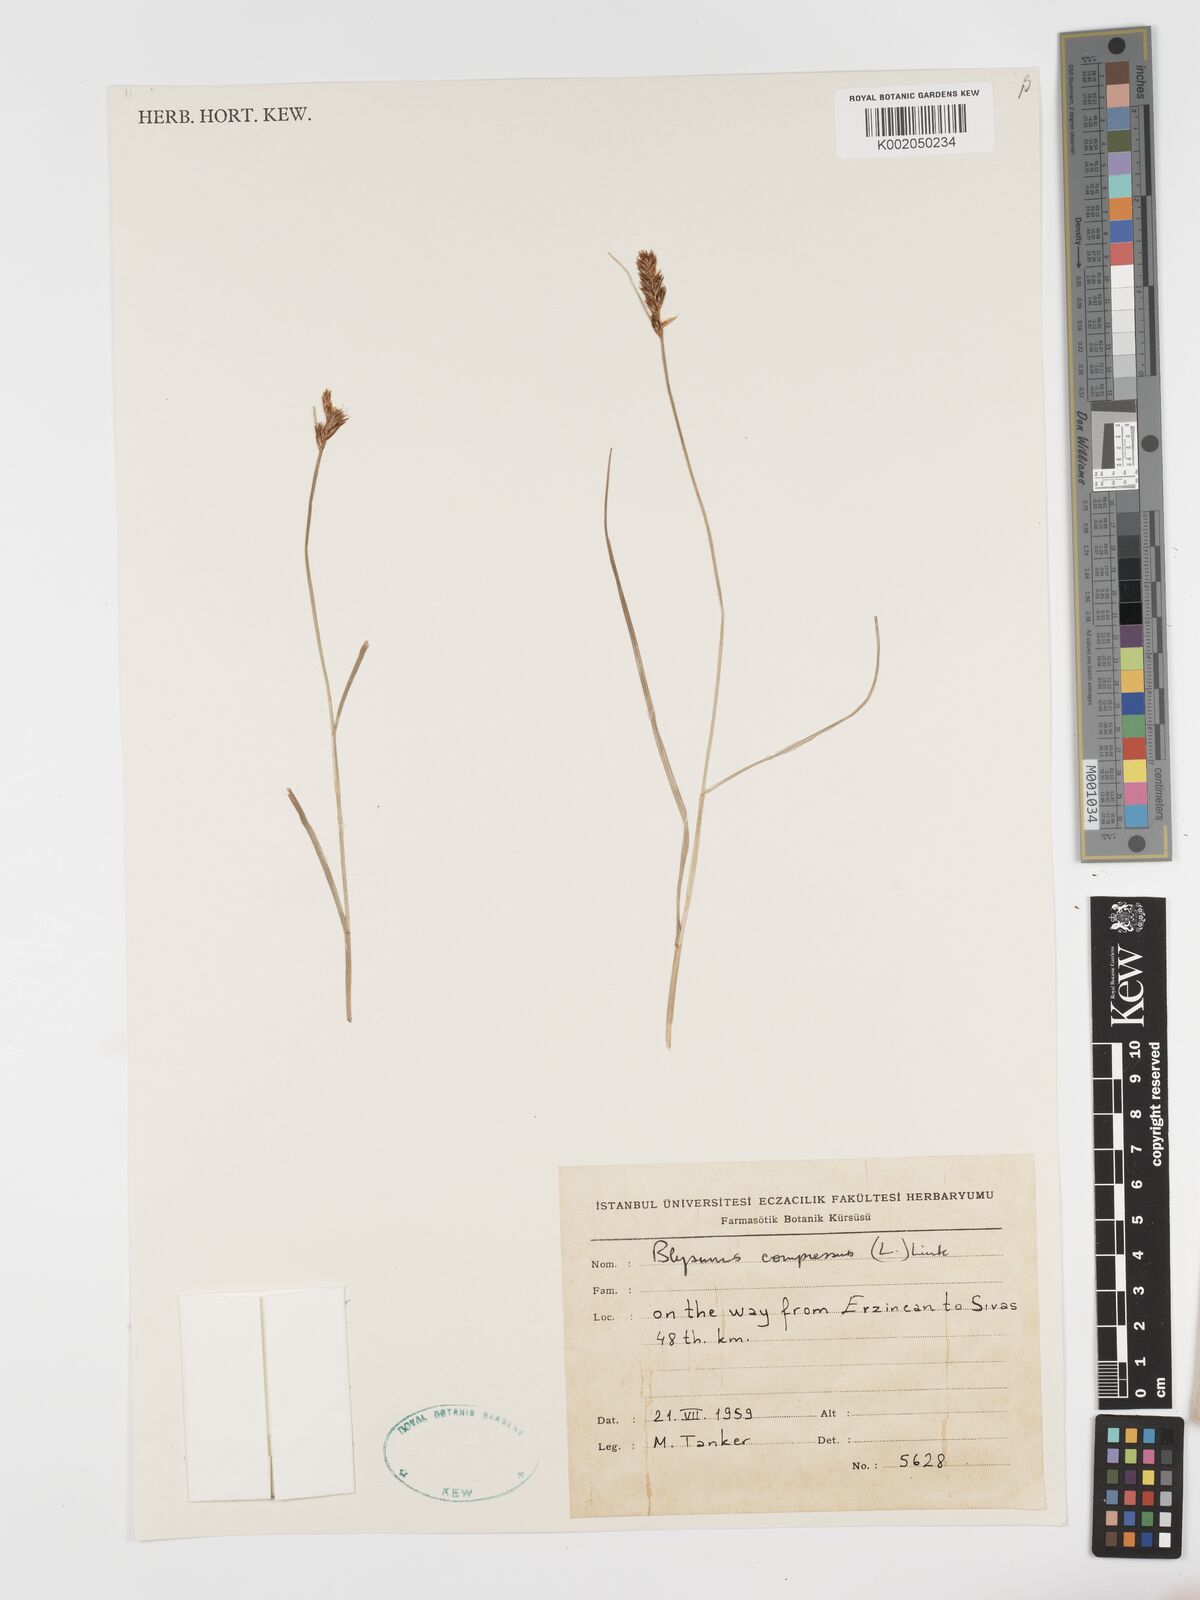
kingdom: Plantae
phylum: Tracheophyta
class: Liliopsida
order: Poales
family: Cyperaceae
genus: Blysmus
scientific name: Blysmus compressus
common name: Flat-sedge
